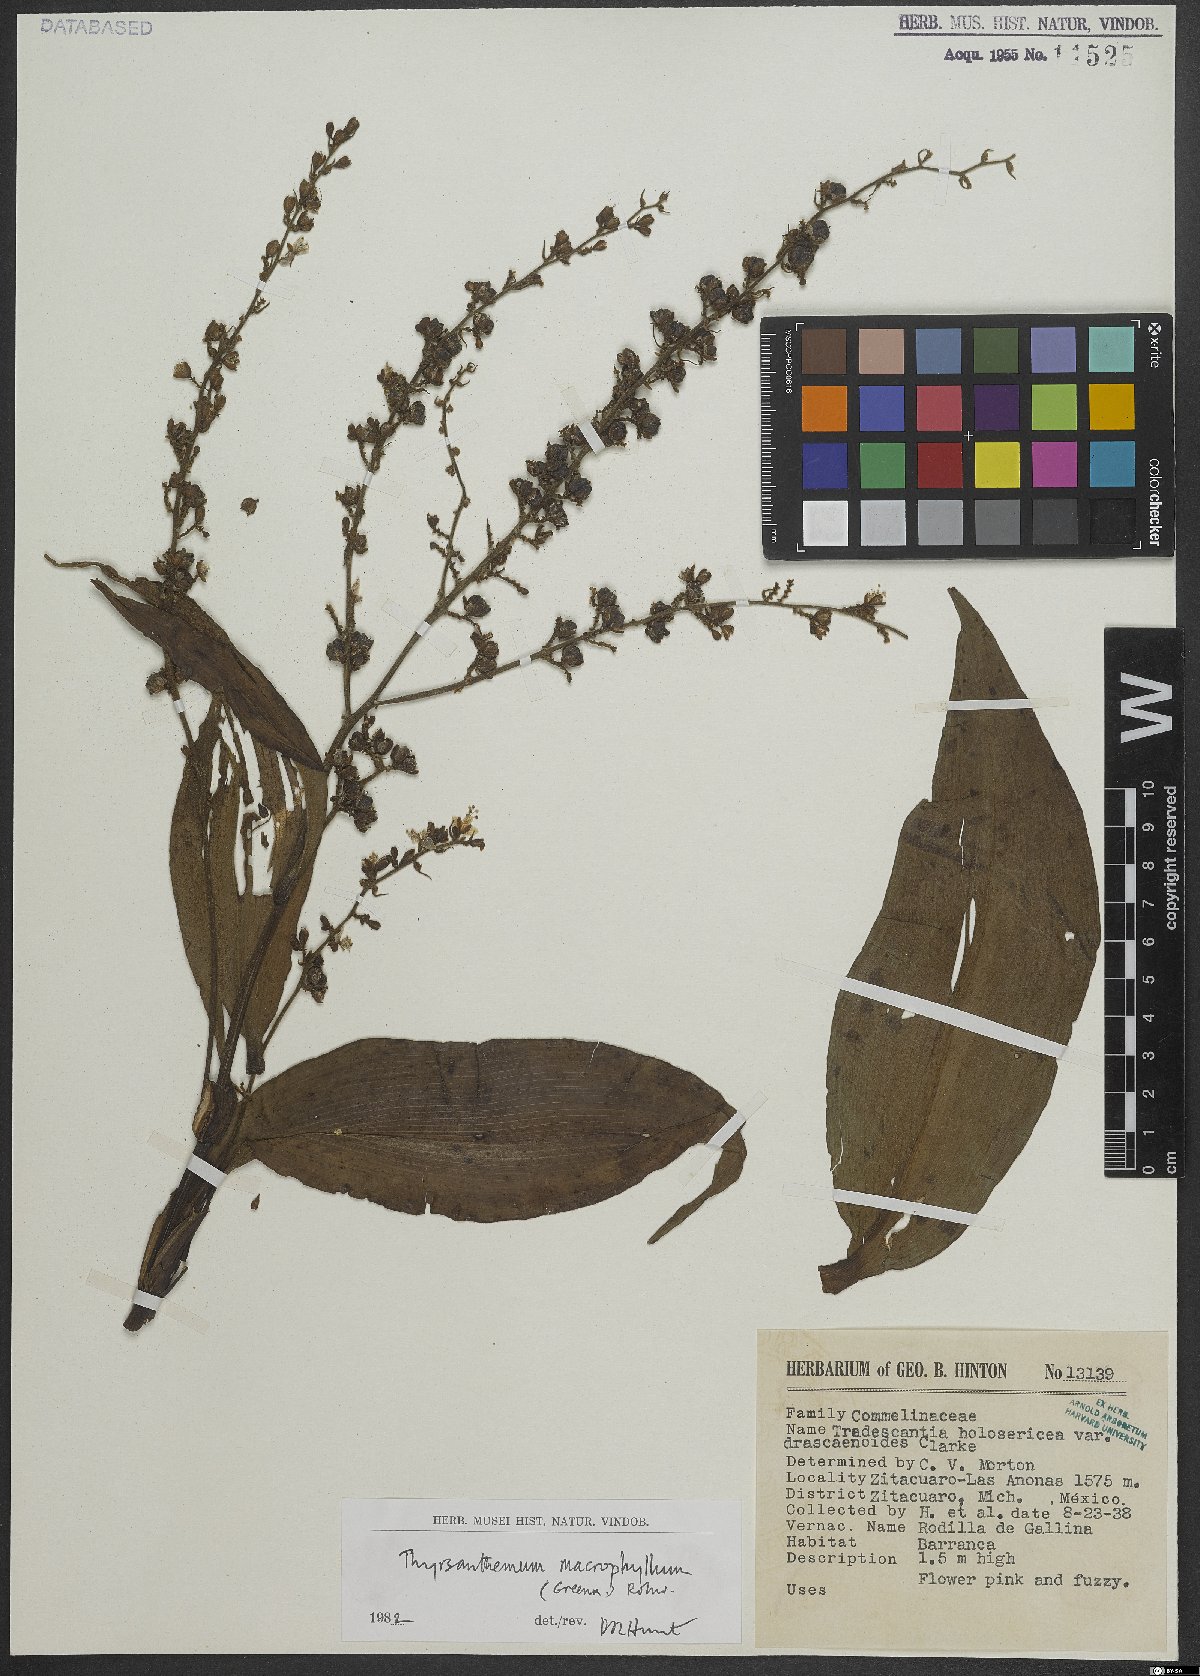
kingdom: Plantae
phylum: Tracheophyta
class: Liliopsida
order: Commelinales
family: Commelinaceae
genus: Thyrsanthemum
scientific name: Thyrsanthemum longifolium
